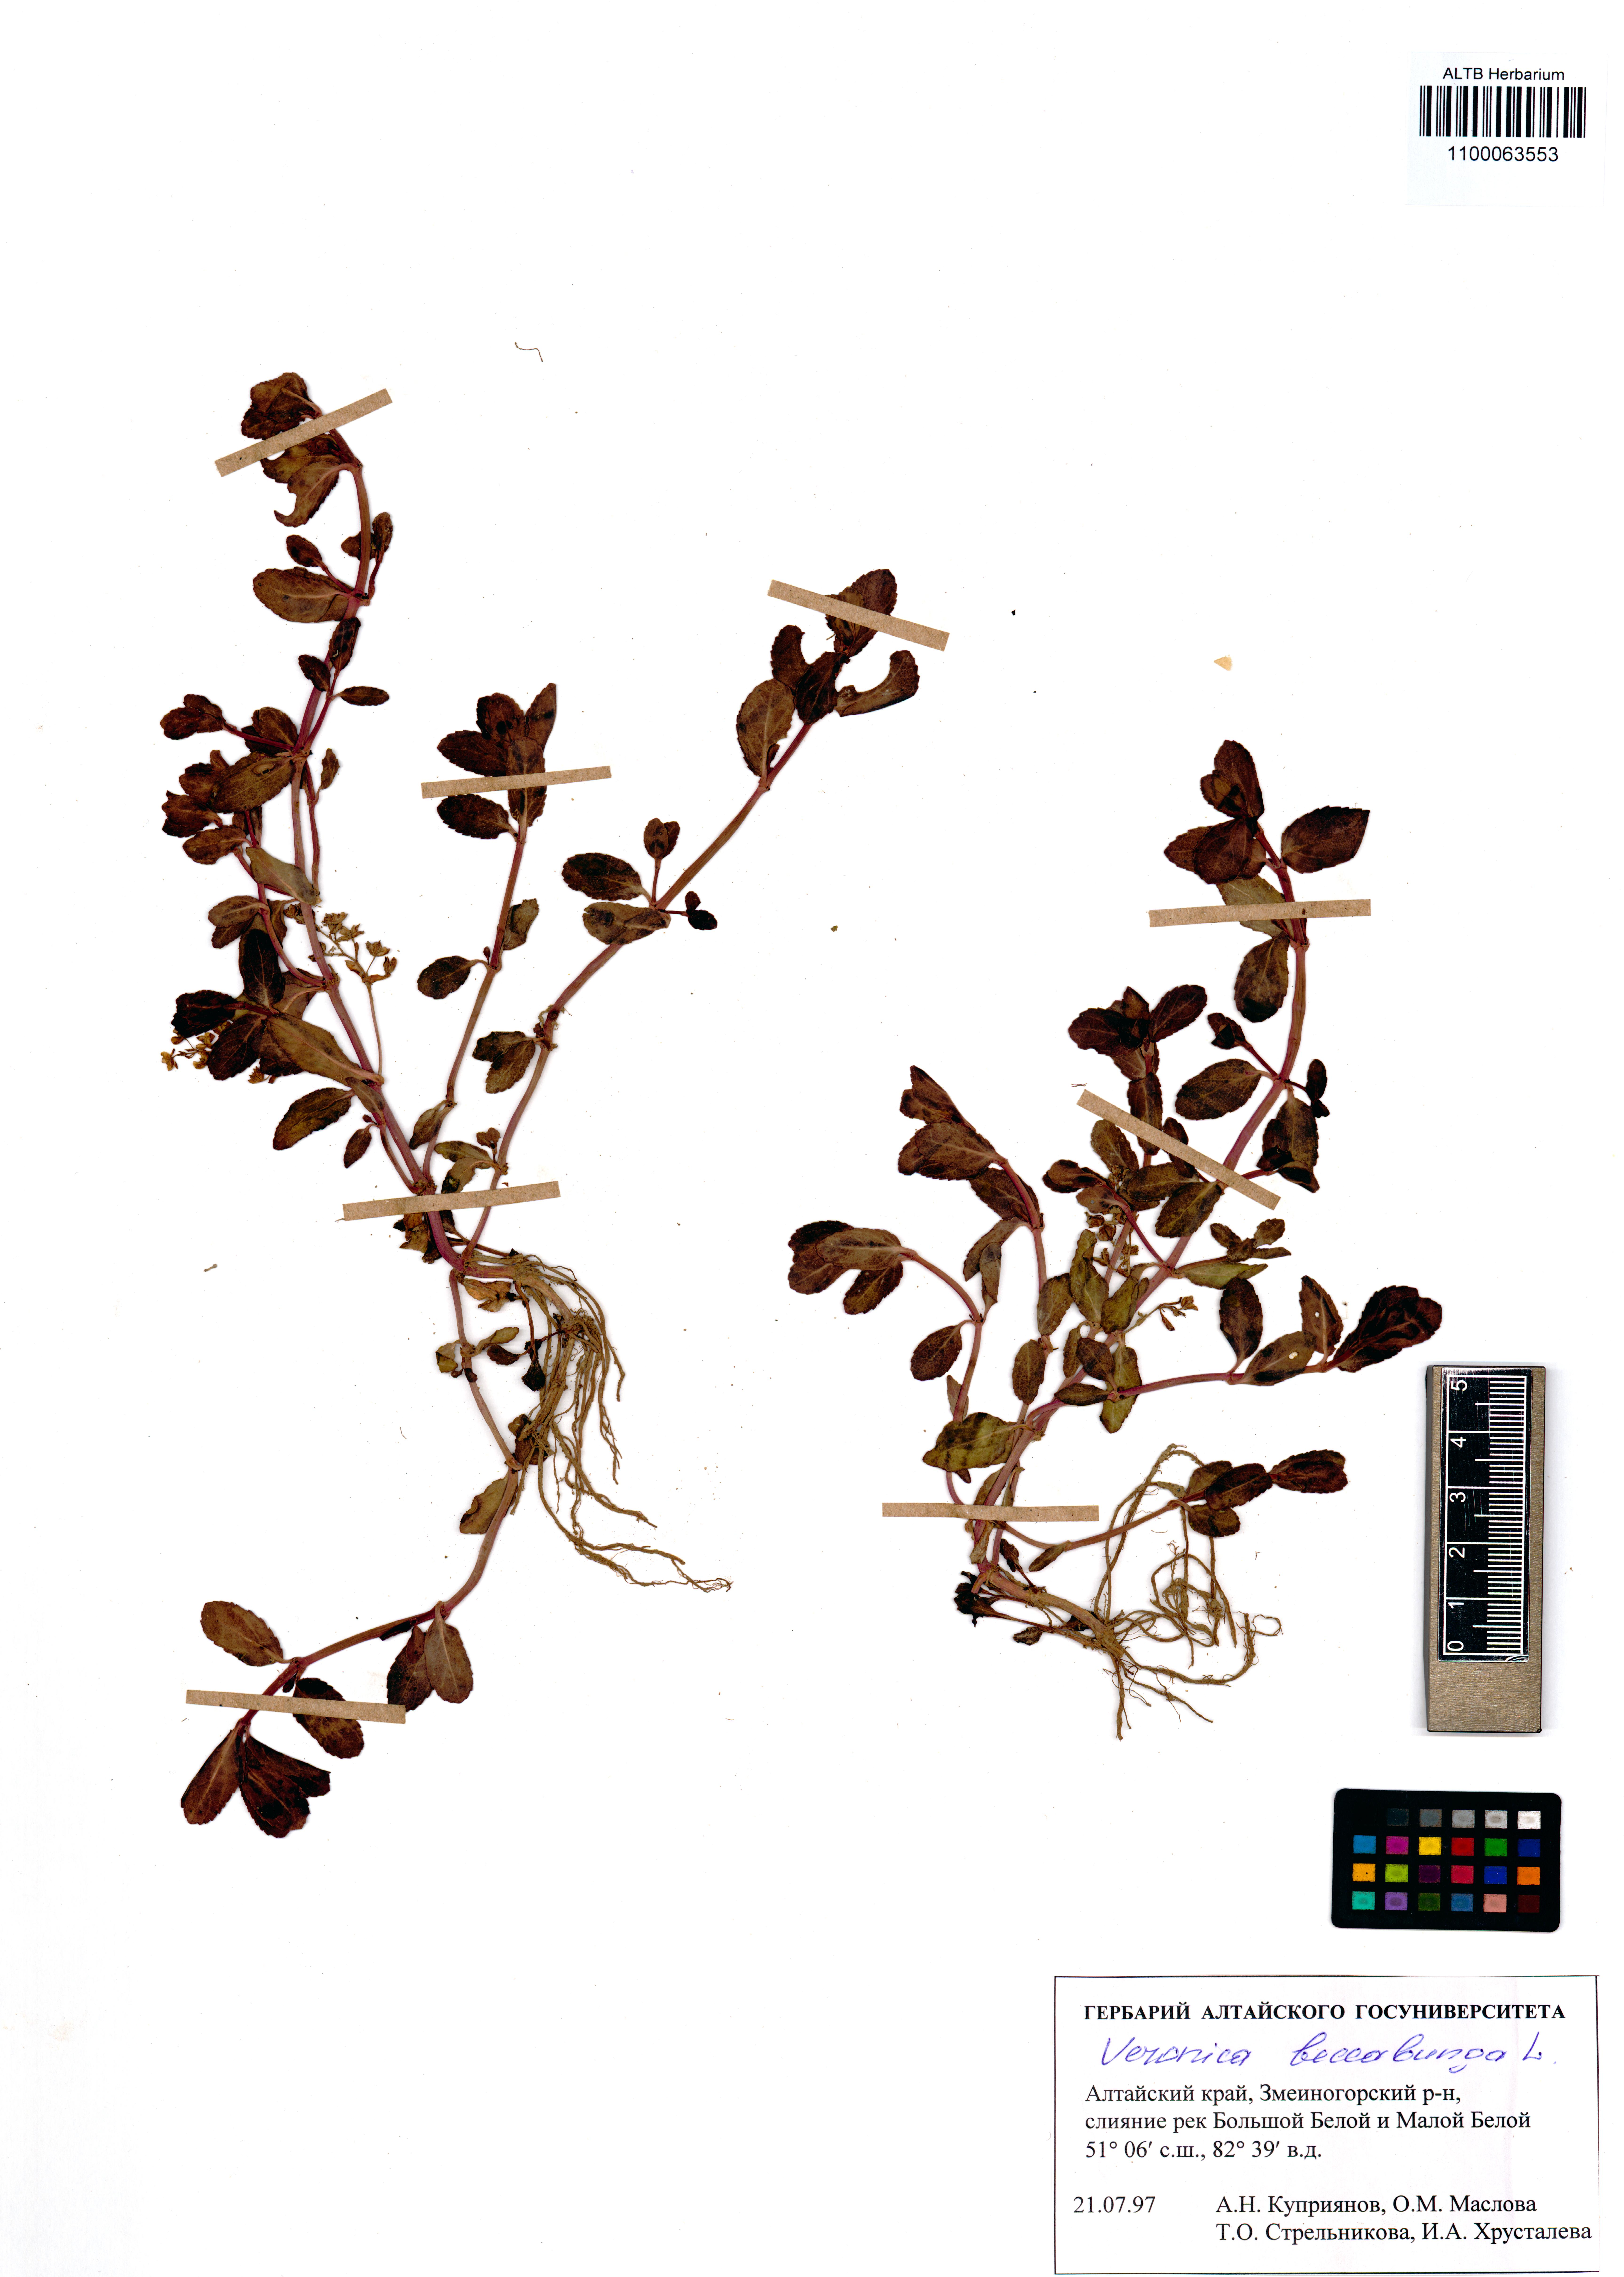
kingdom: Plantae
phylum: Tracheophyta
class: Magnoliopsida
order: Lamiales
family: Plantaginaceae
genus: Veronica
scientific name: Veronica beccabunga
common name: Brooklime
